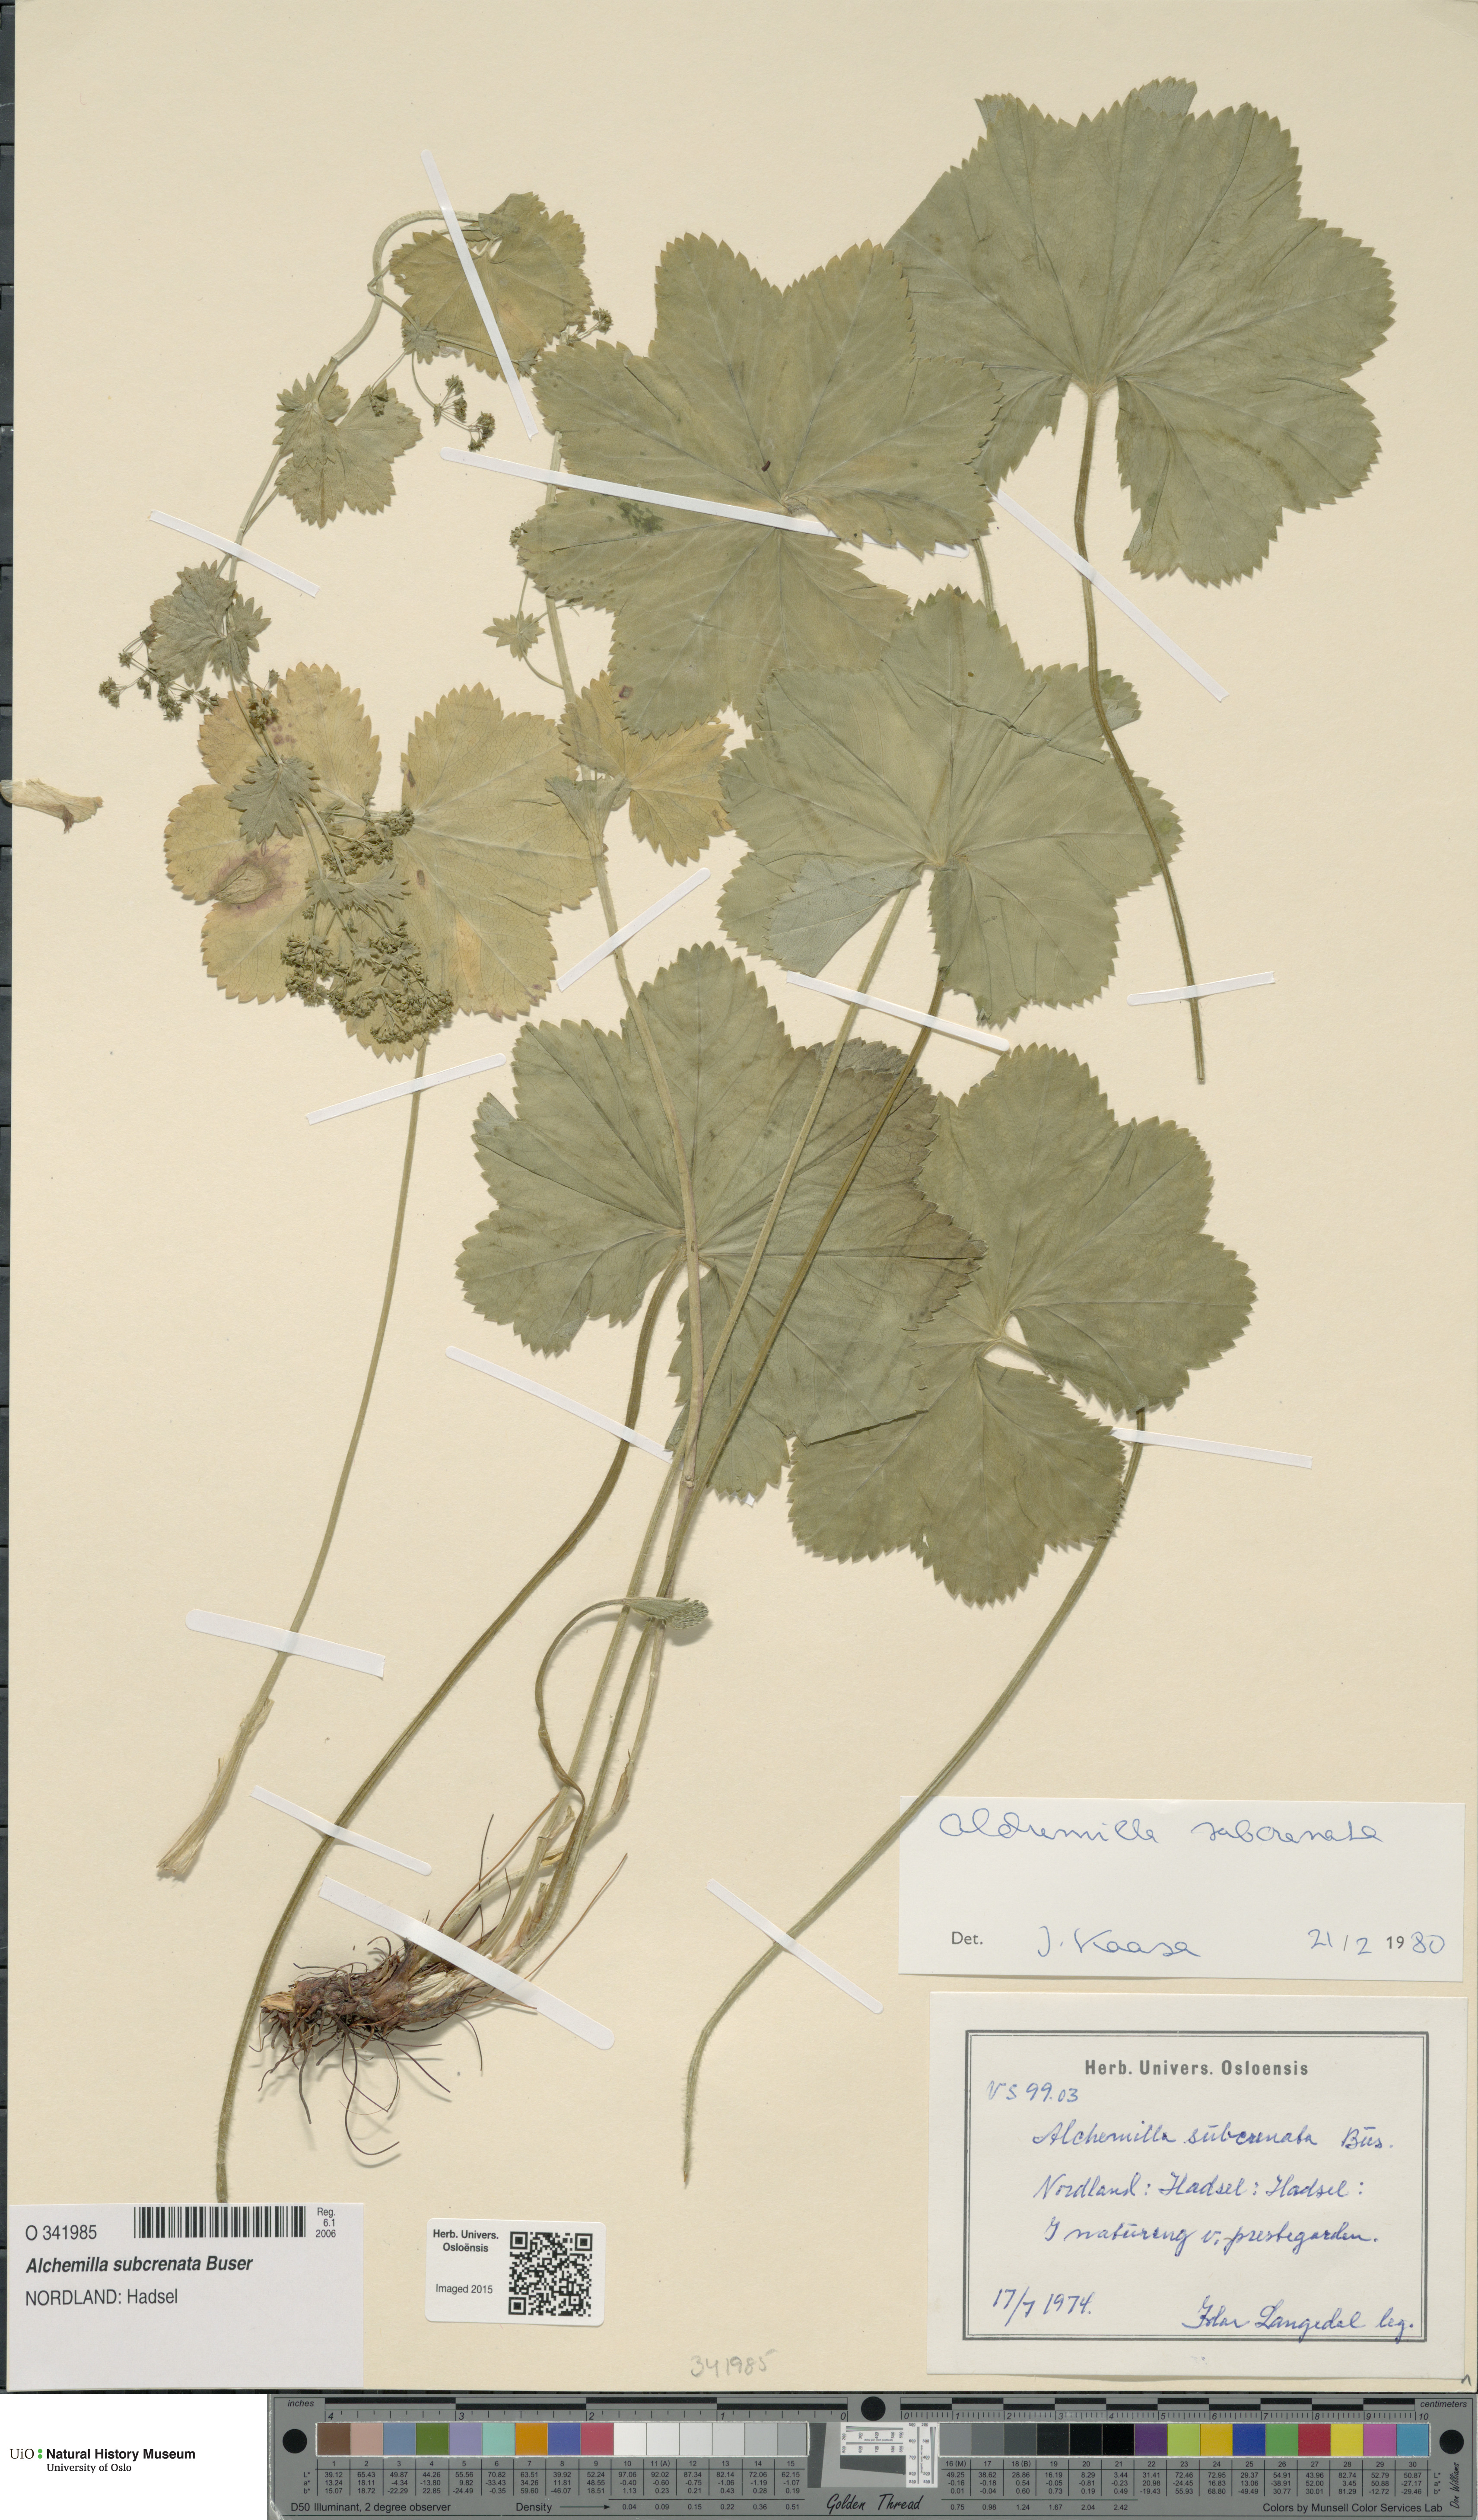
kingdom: Plantae
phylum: Tracheophyta
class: Magnoliopsida
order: Rosales
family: Rosaceae
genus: Alchemilla
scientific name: Alchemilla subcrenata
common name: Broadtooth lady's mantle
